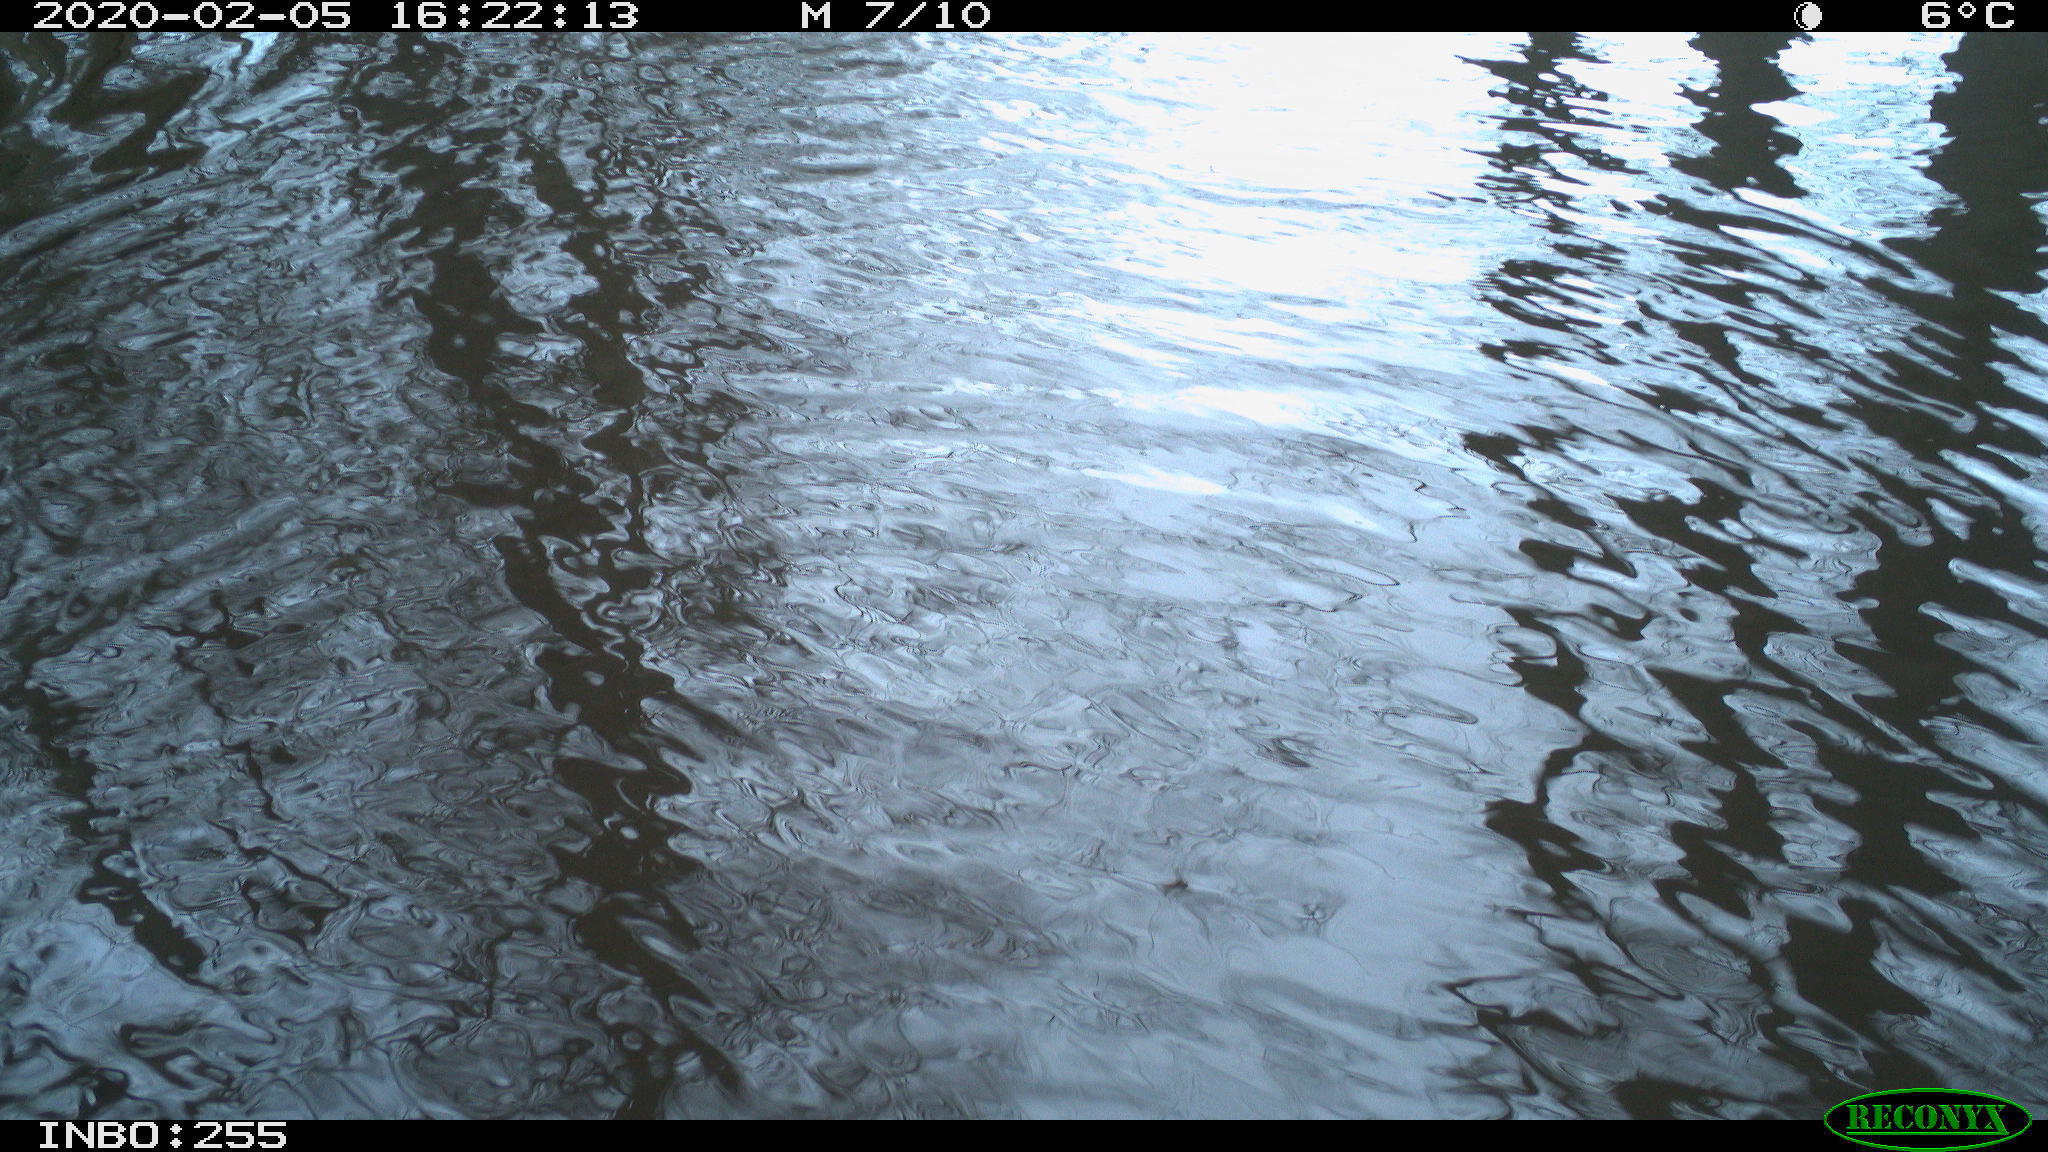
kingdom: Animalia
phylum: Chordata
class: Aves
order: Gruiformes
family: Rallidae
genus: Fulica
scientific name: Fulica atra
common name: Eurasian coot
